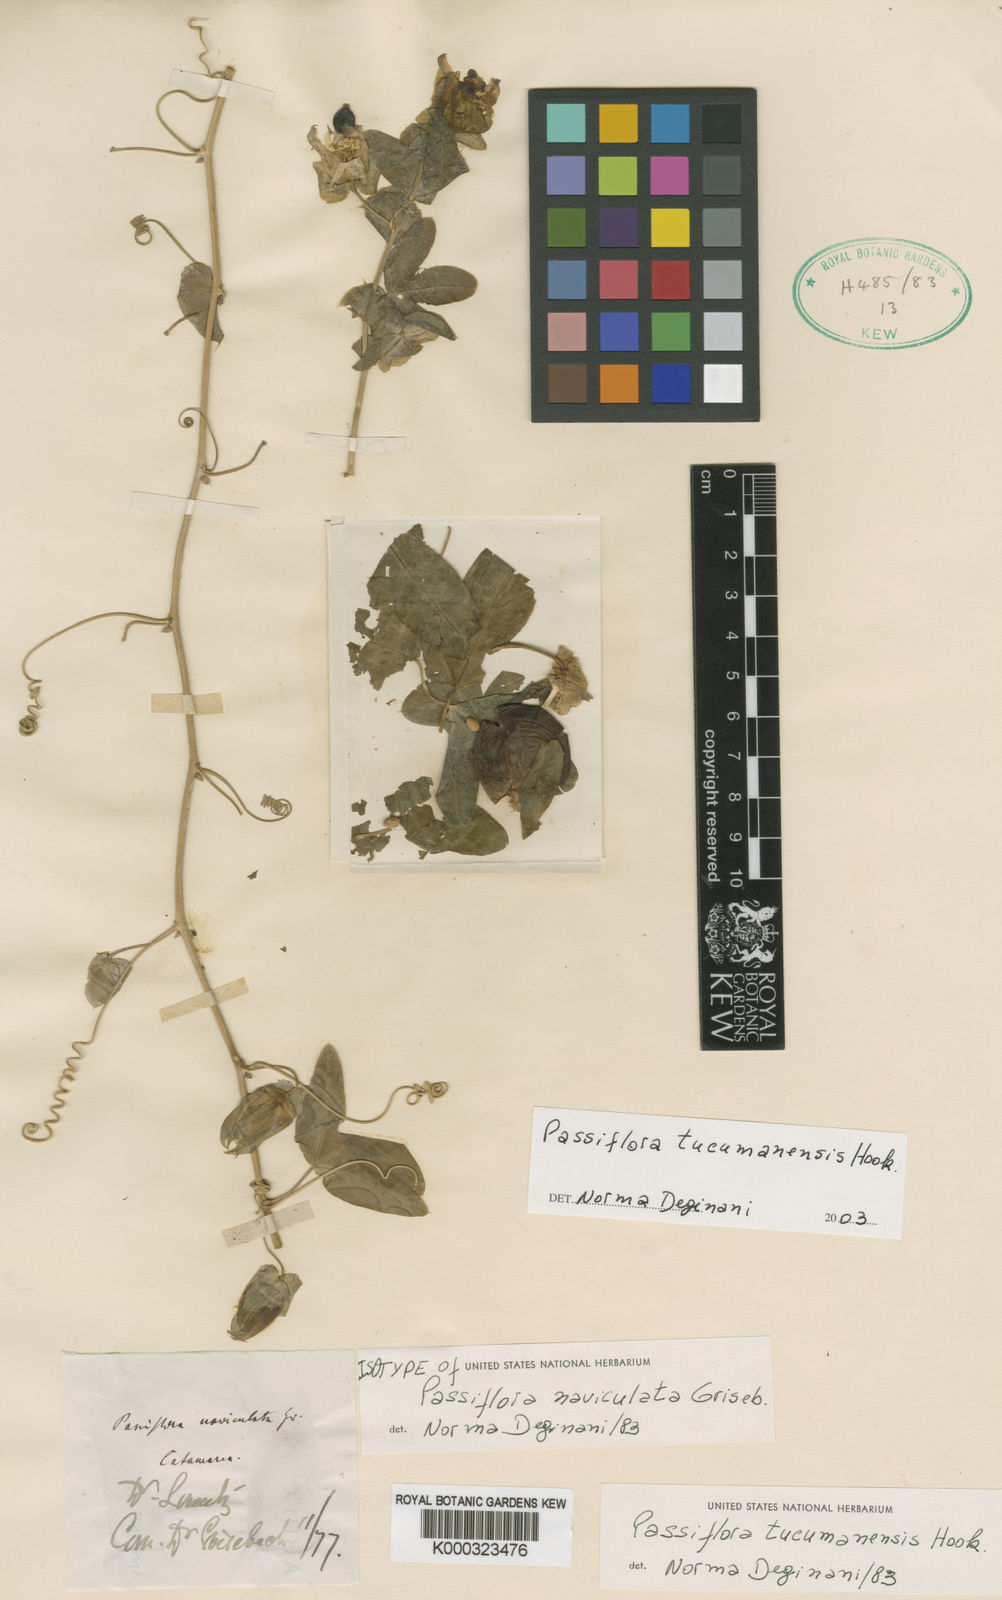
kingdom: Plantae
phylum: Tracheophyta
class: Magnoliopsida
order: Malpighiales
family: Passifloraceae
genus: Passiflora
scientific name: Passiflora tucumanensis
